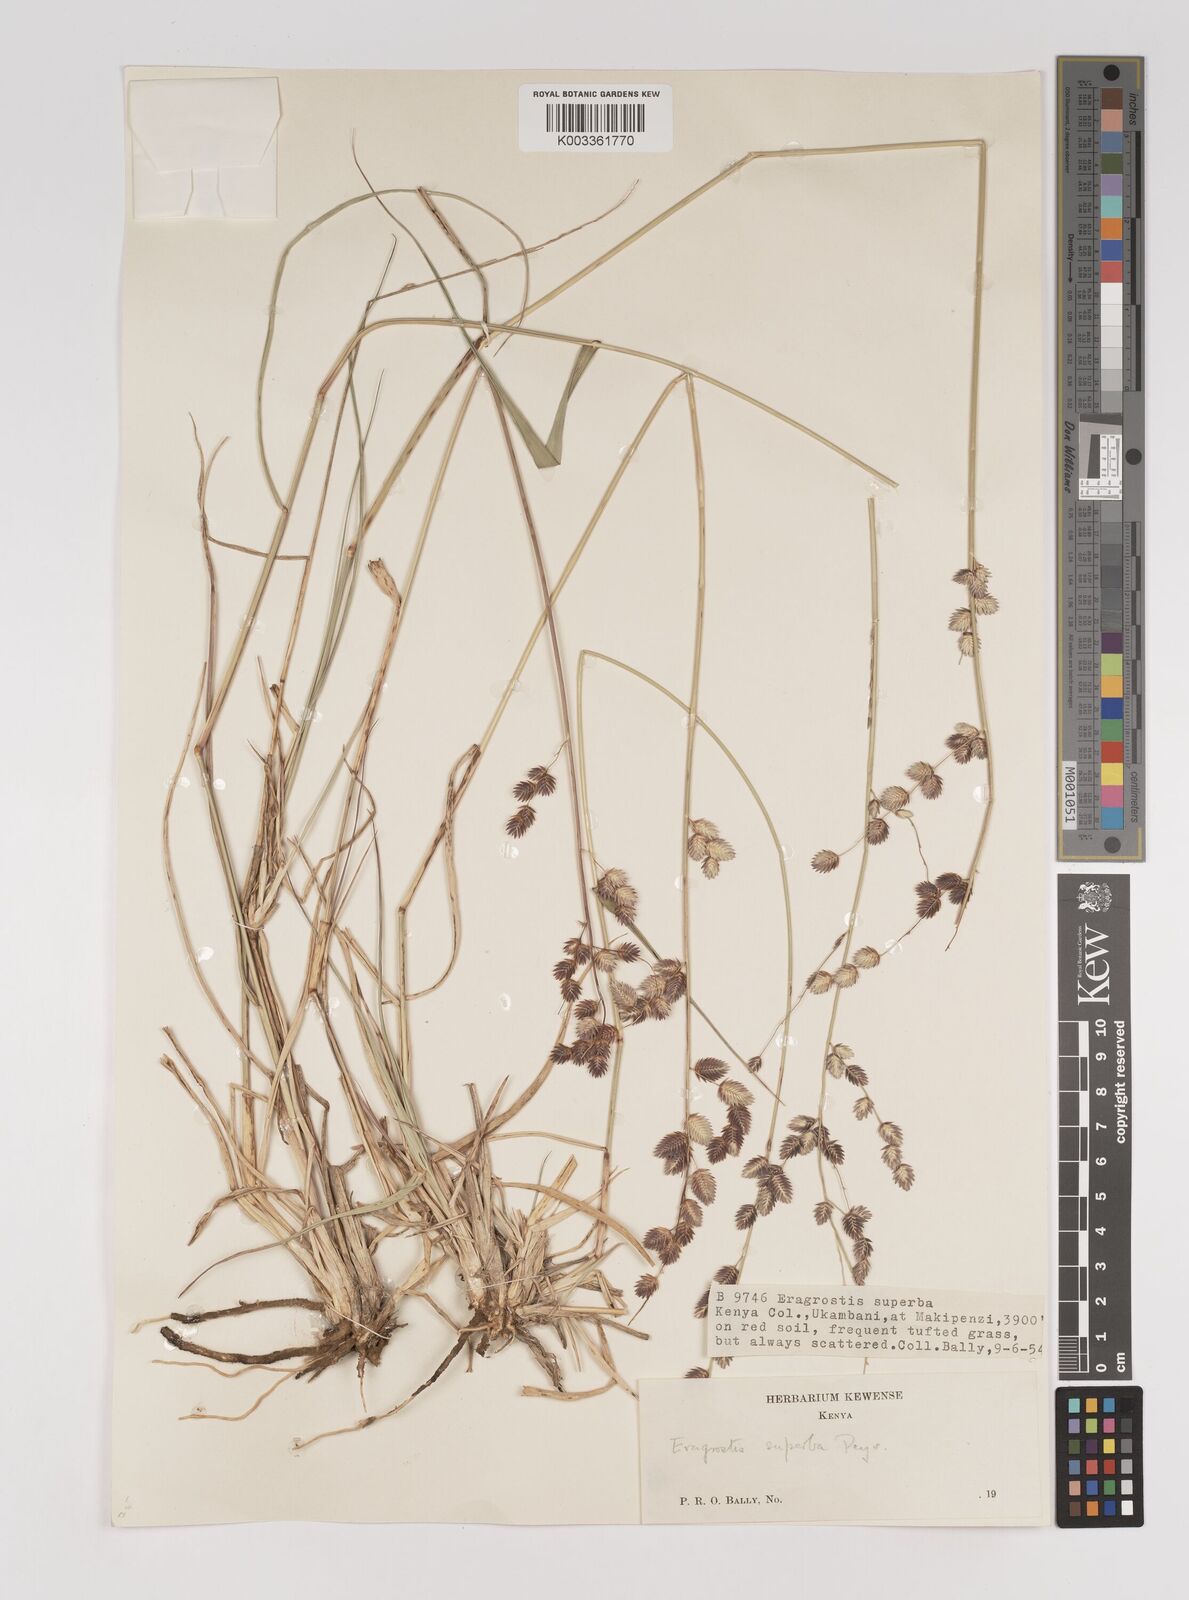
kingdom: Plantae
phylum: Tracheophyta
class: Liliopsida
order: Poales
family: Poaceae
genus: Eragrostis
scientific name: Eragrostis superba
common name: Wilman lovegrass
